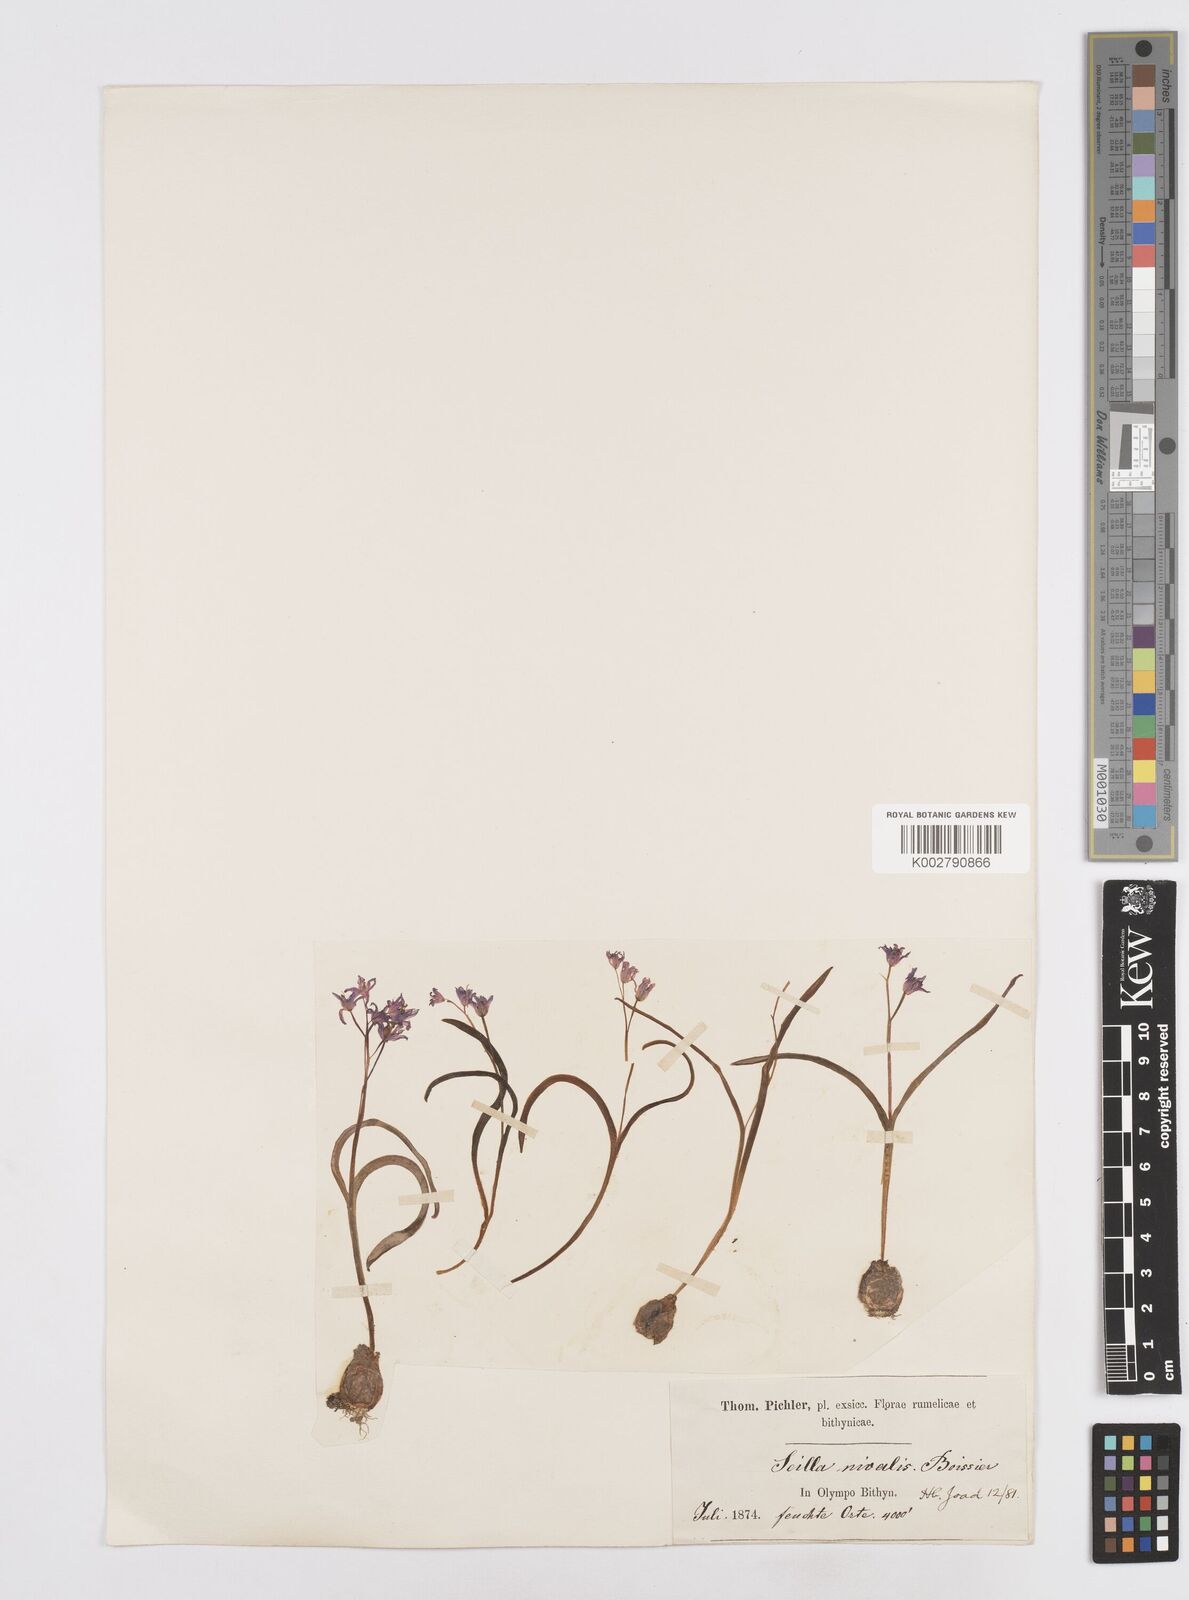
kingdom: Plantae
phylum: Tracheophyta
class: Liliopsida
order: Asparagales
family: Asparagaceae
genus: Scilla
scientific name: Scilla bifolia
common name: Alpine squill
